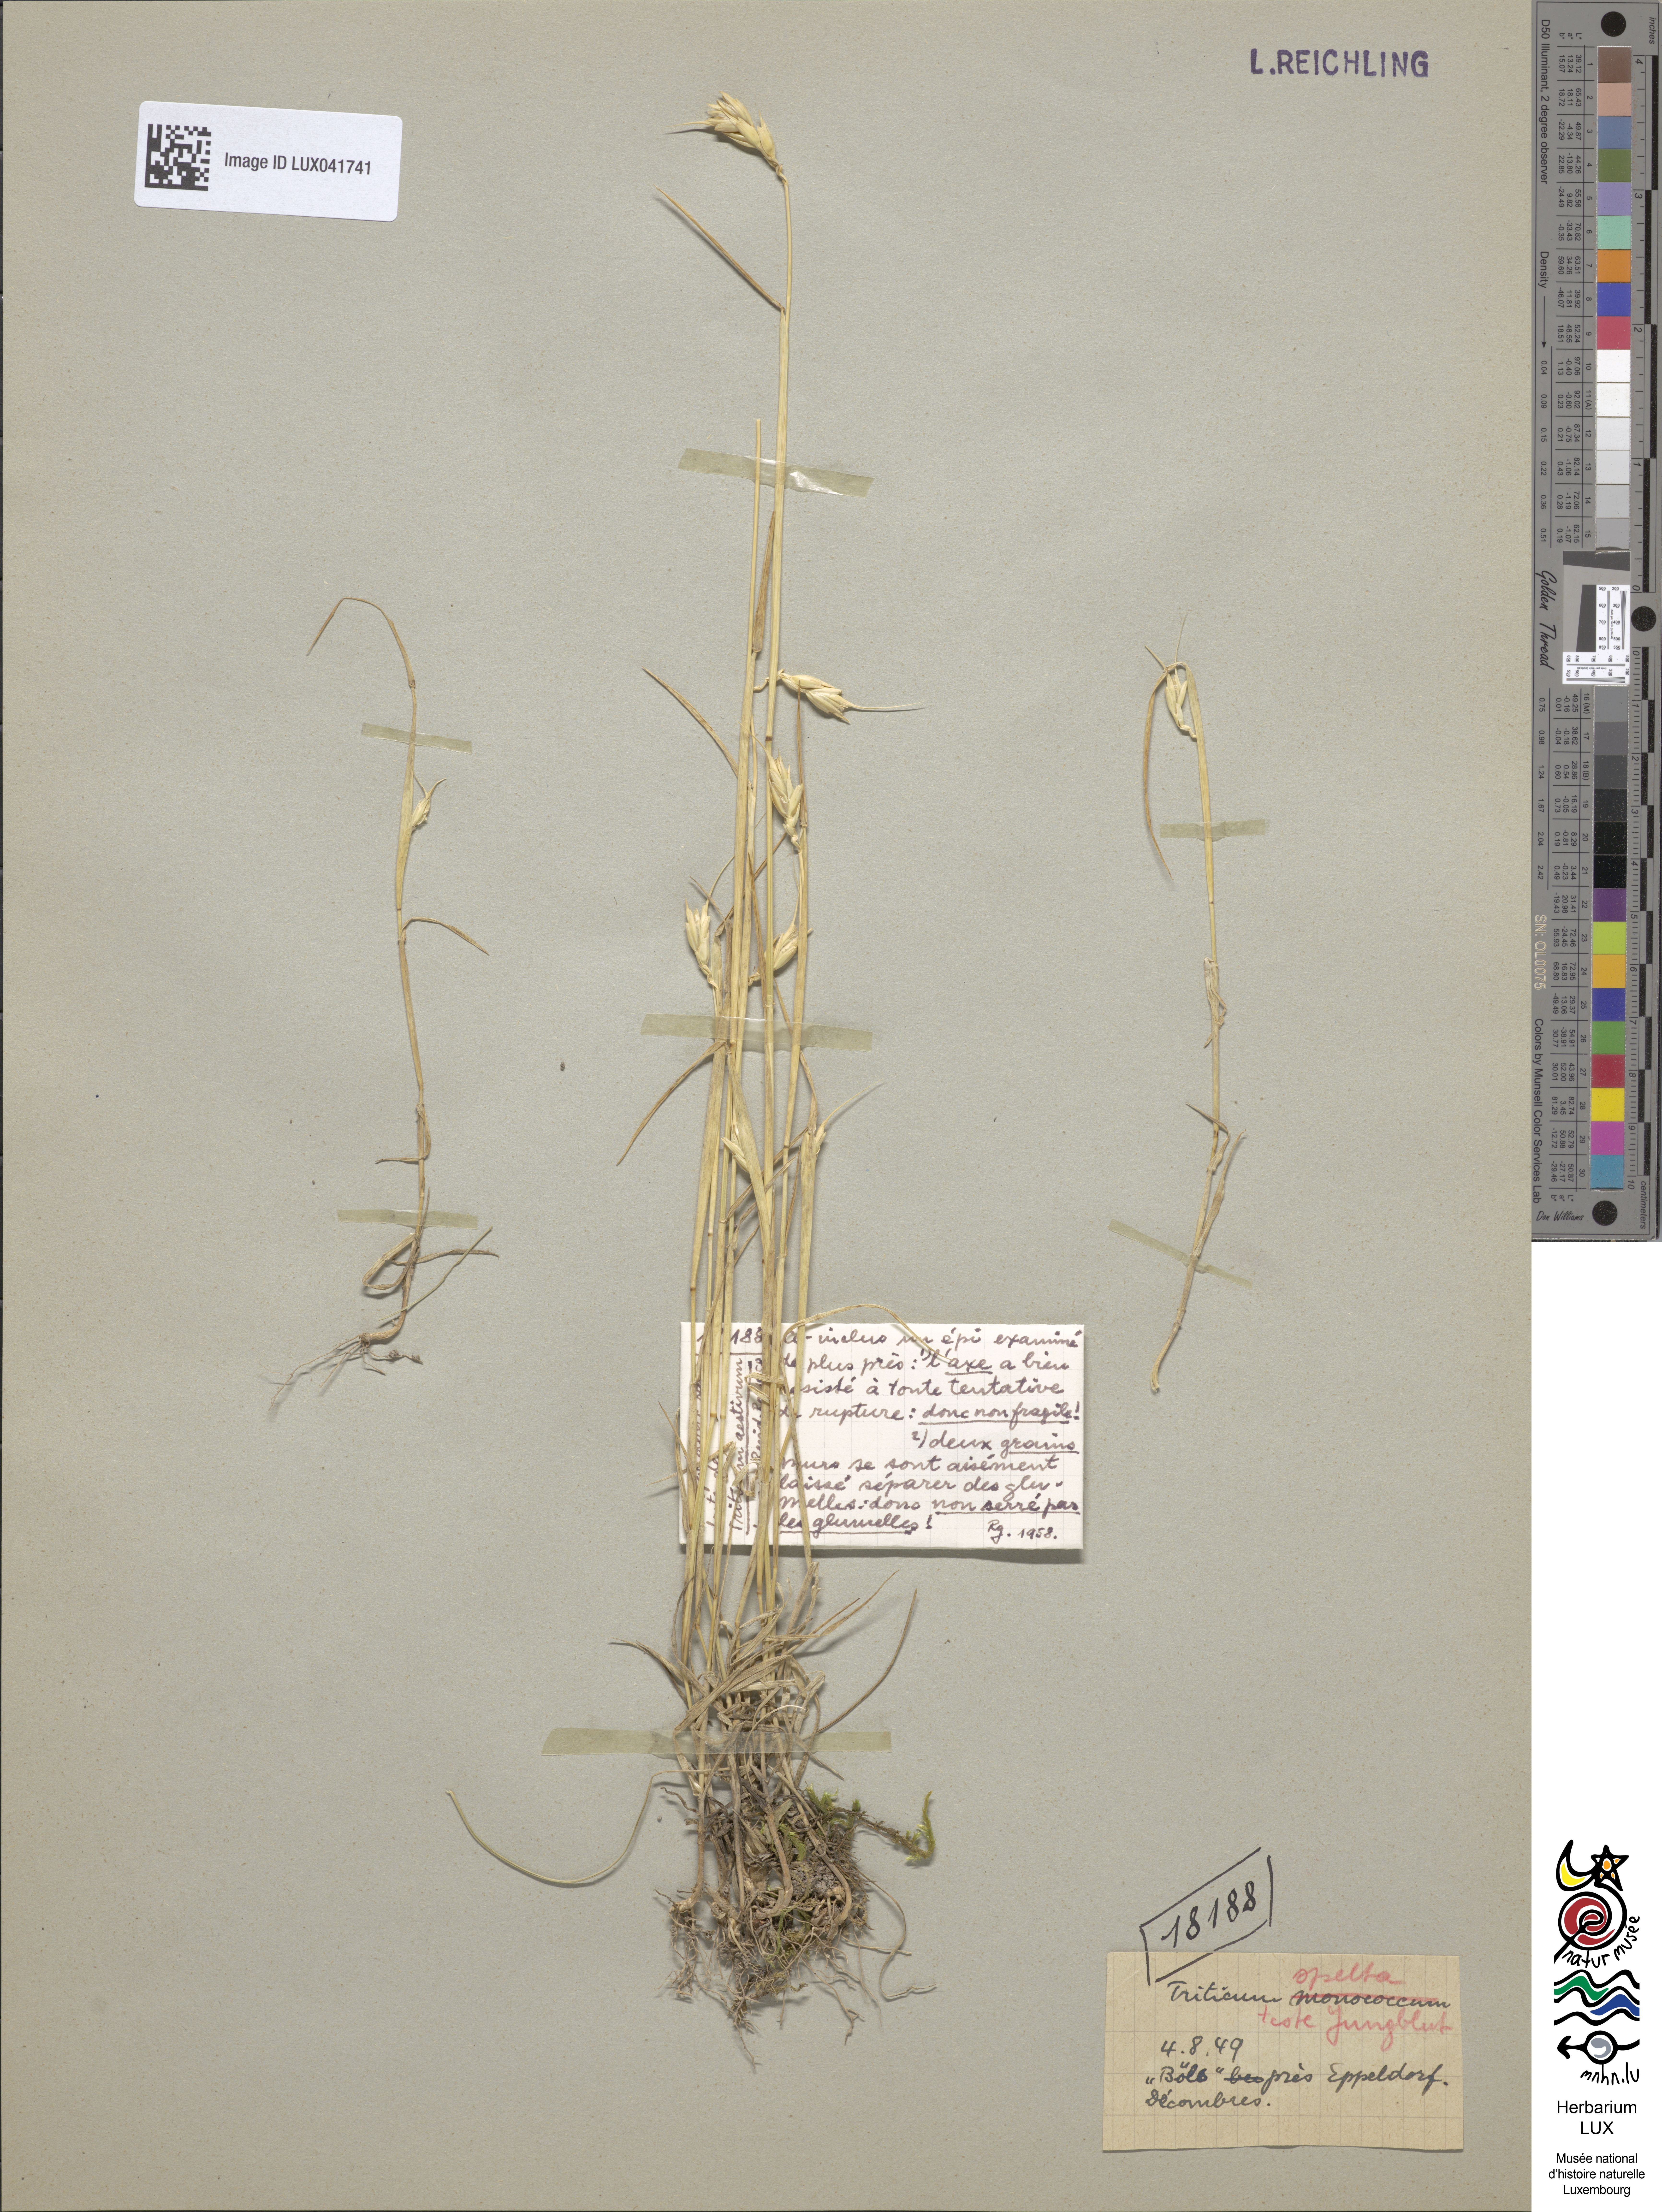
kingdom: Plantae
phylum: Tracheophyta
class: Liliopsida
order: Poales
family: Poaceae
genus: Triticum
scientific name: Triticum aestivum
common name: Common wheat
